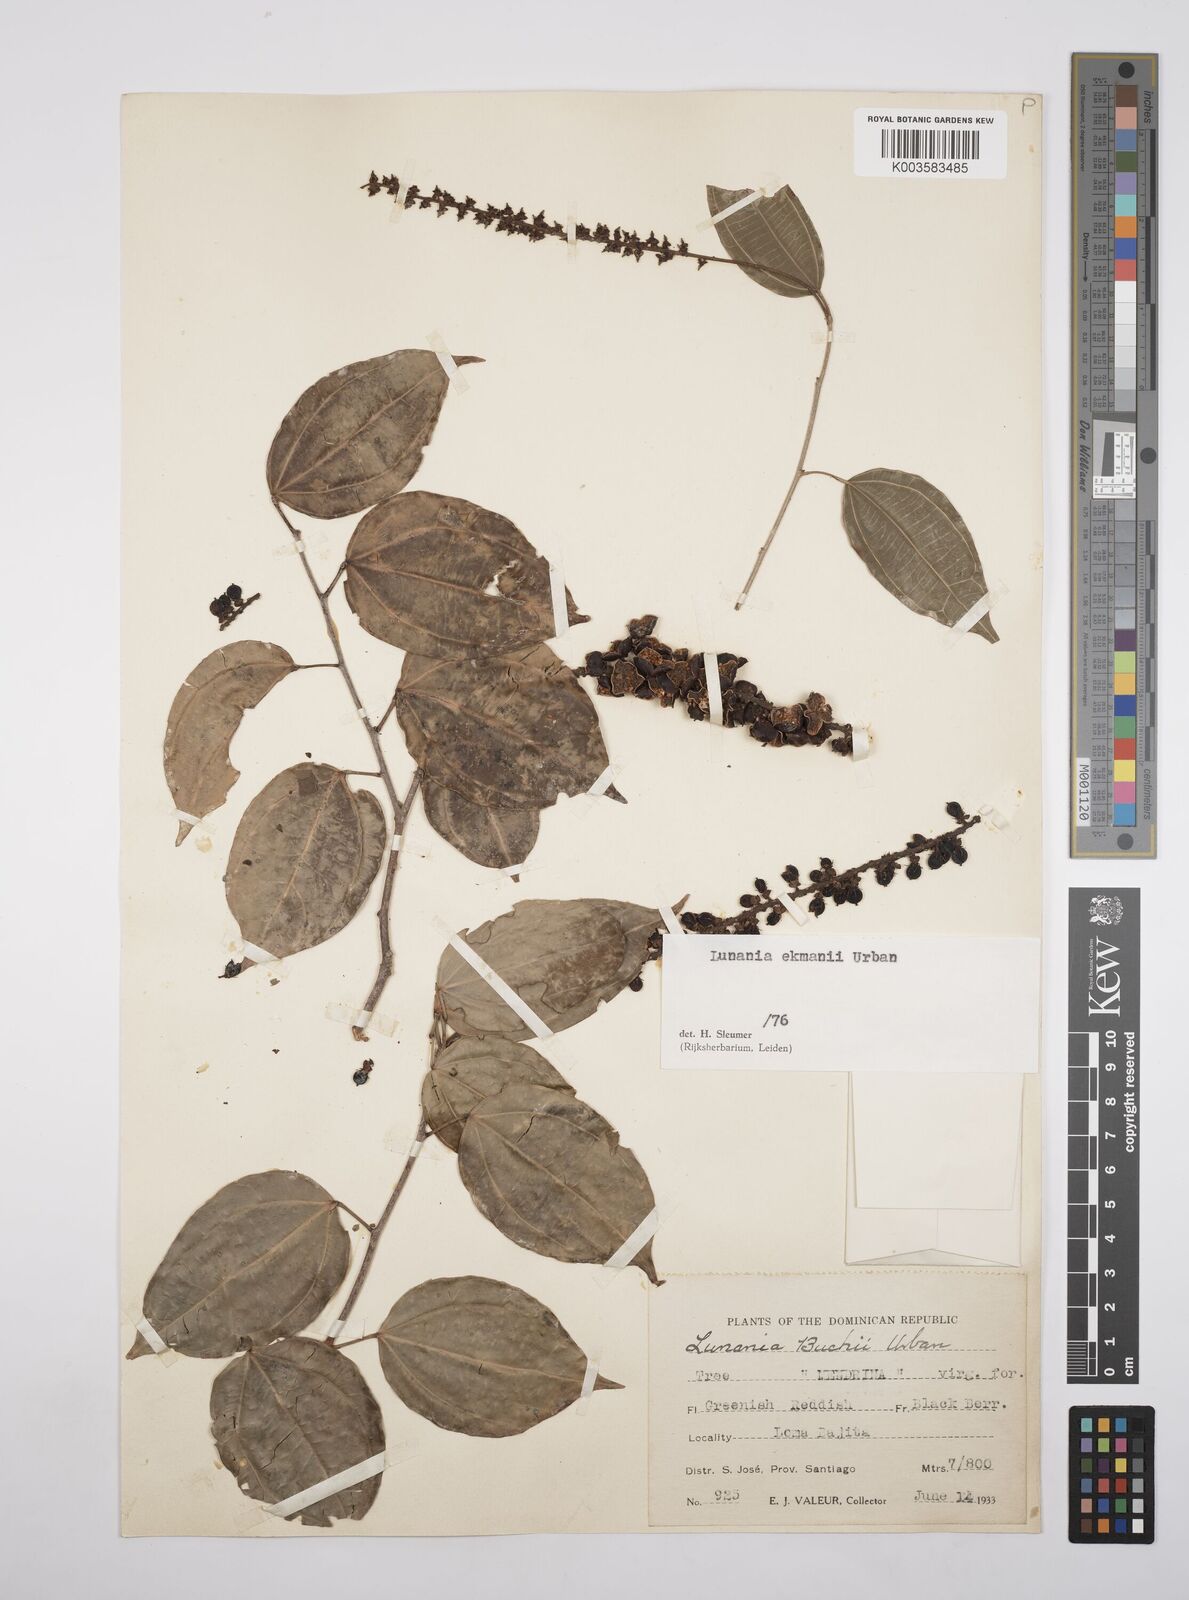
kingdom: Plantae
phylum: Tracheophyta
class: Magnoliopsida
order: Malpighiales
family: Salicaceae
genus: Lunania
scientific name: Lunania ekmanii
